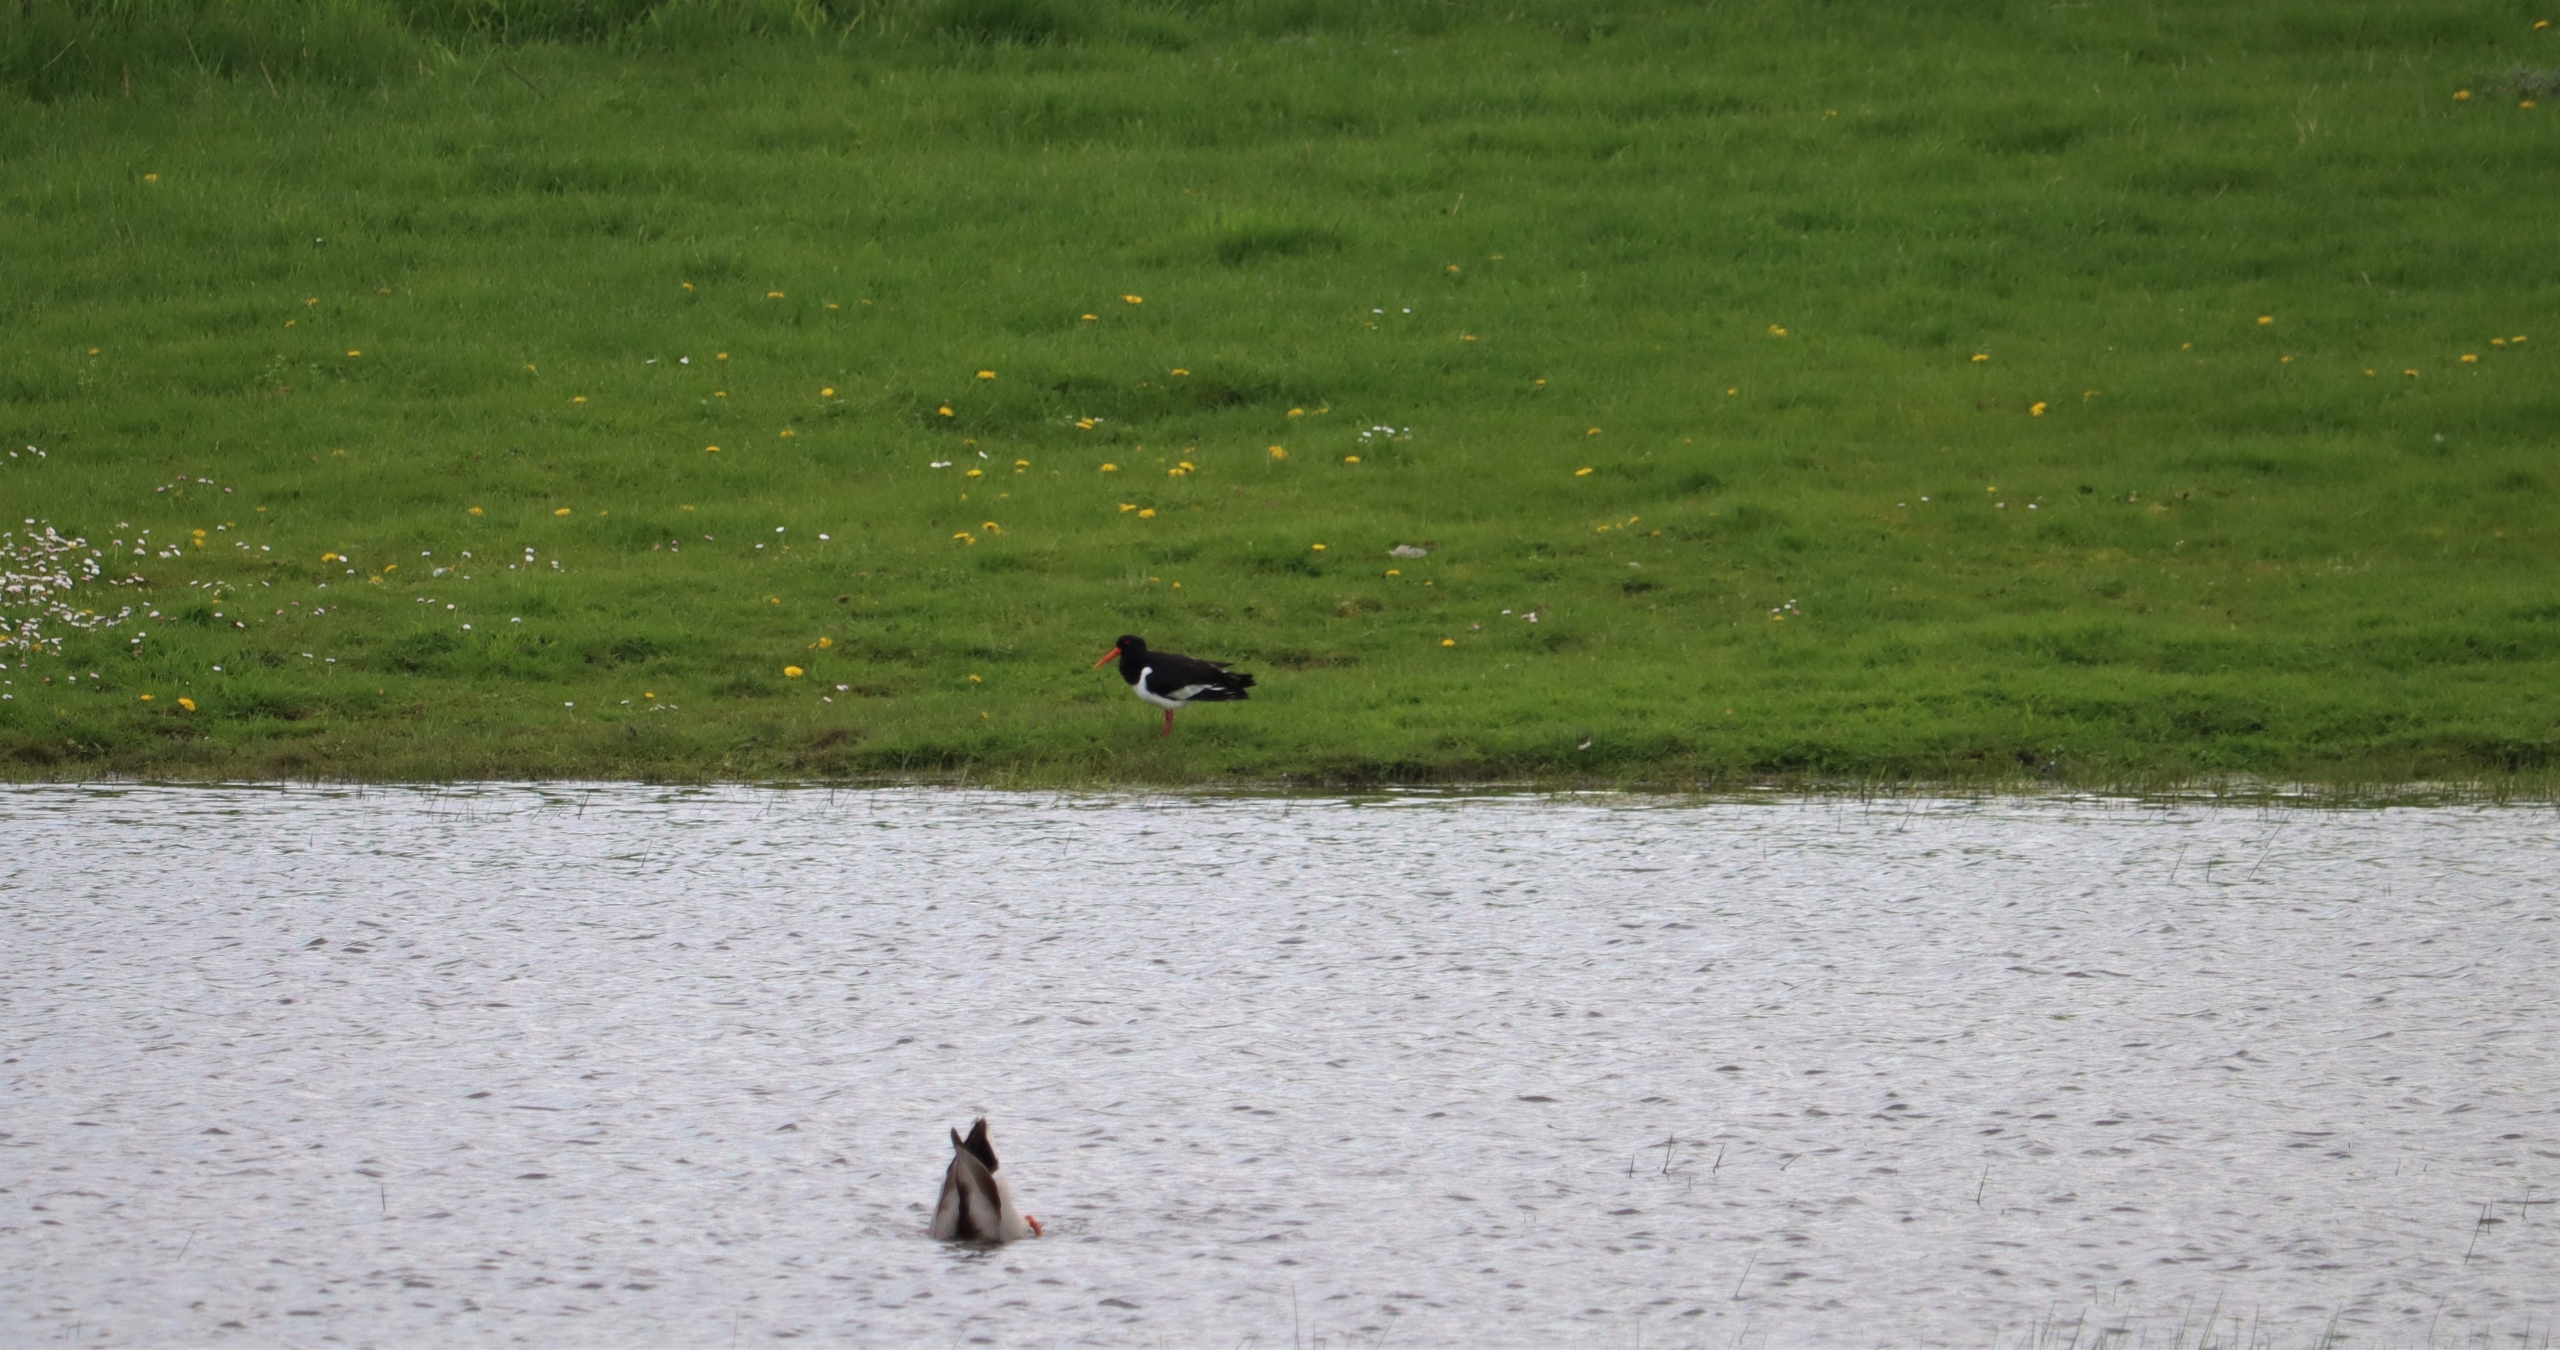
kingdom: Animalia
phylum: Chordata
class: Aves
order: Charadriiformes
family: Haematopodidae
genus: Haematopus
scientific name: Haematopus ostralegus
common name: Strandskade
